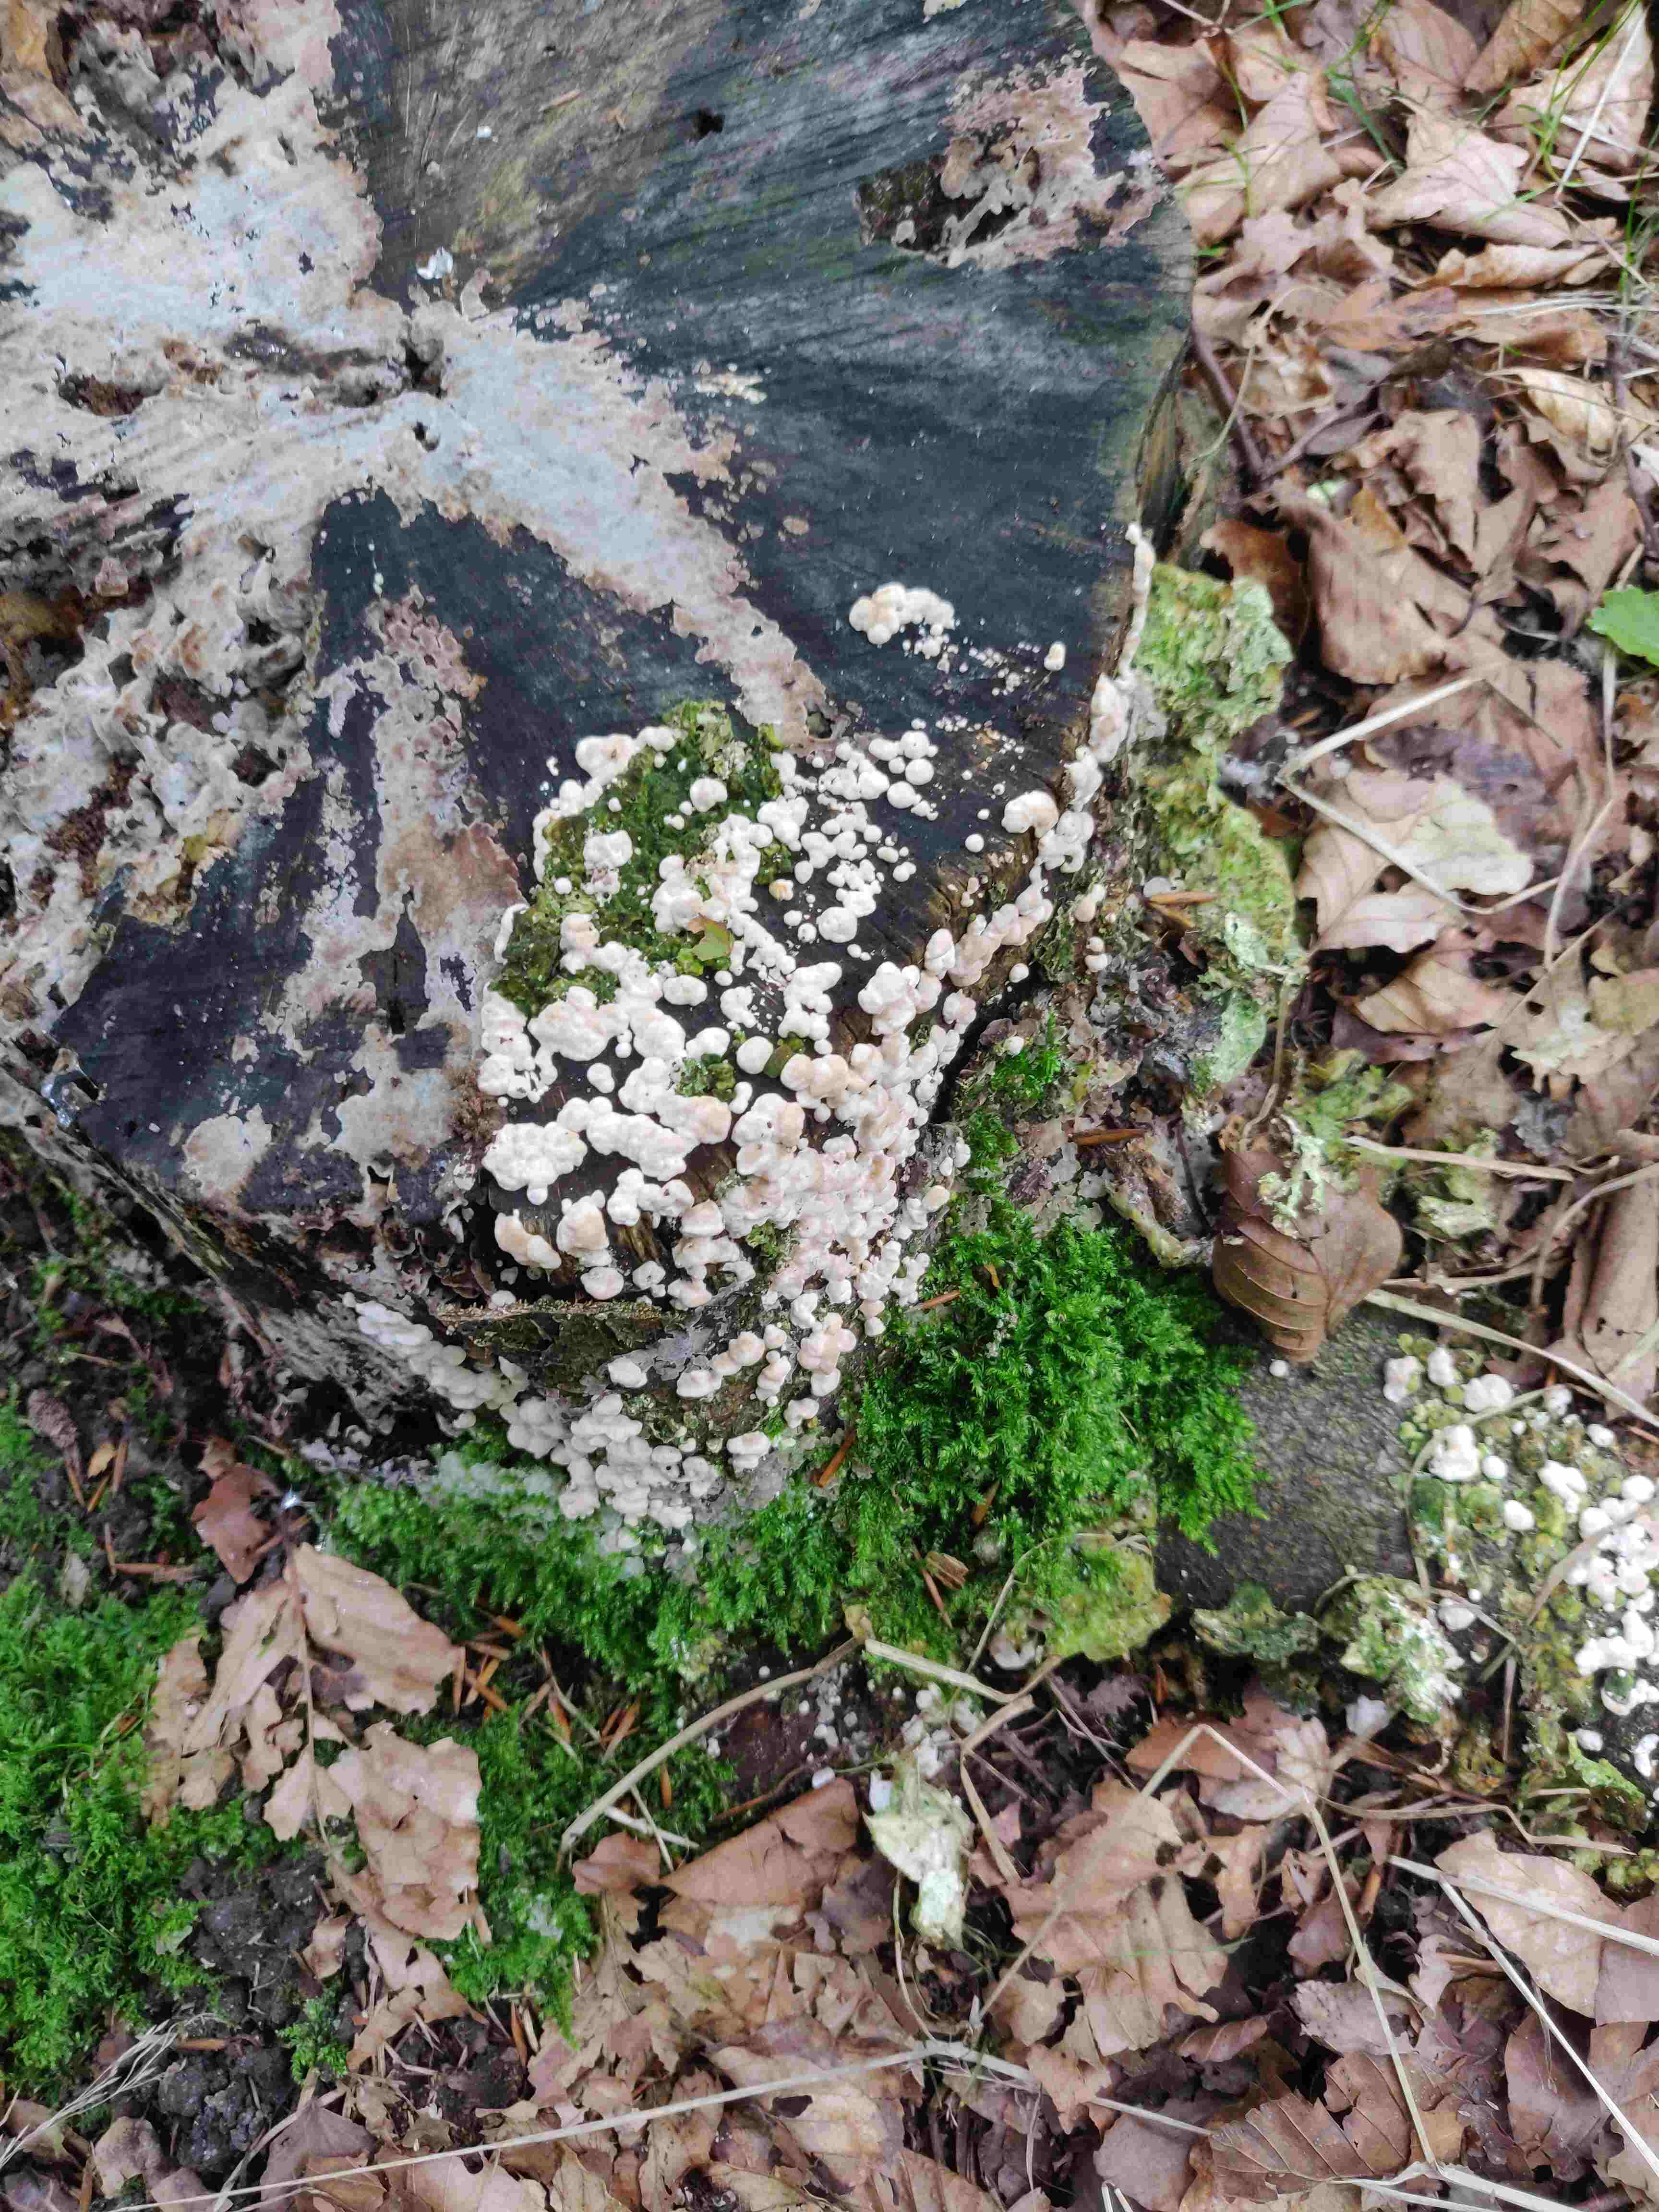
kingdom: Fungi
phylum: Basidiomycota
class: Agaricomycetes
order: Polyporales
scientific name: Polyporales
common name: poresvampordenen
